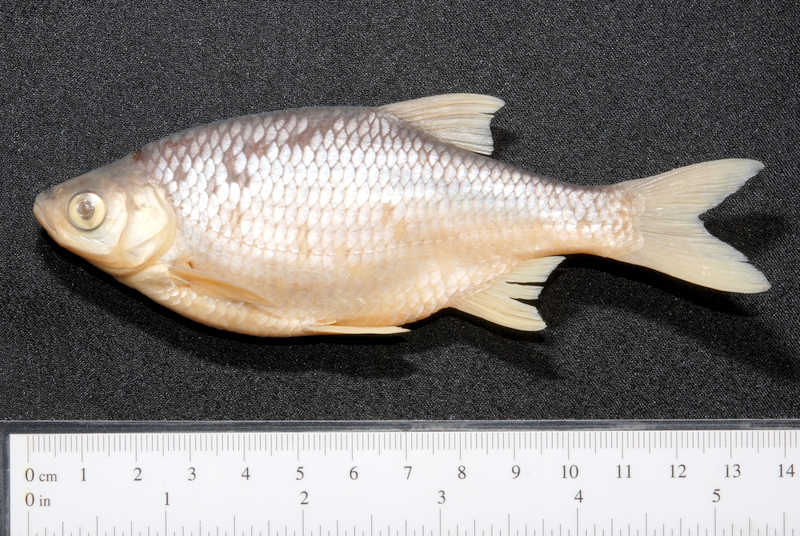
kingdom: Animalia
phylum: Chordata
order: Cypriniformes
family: Cyprinidae
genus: Scardinius
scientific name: Scardinius erythrophthalmus
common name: Rudd
